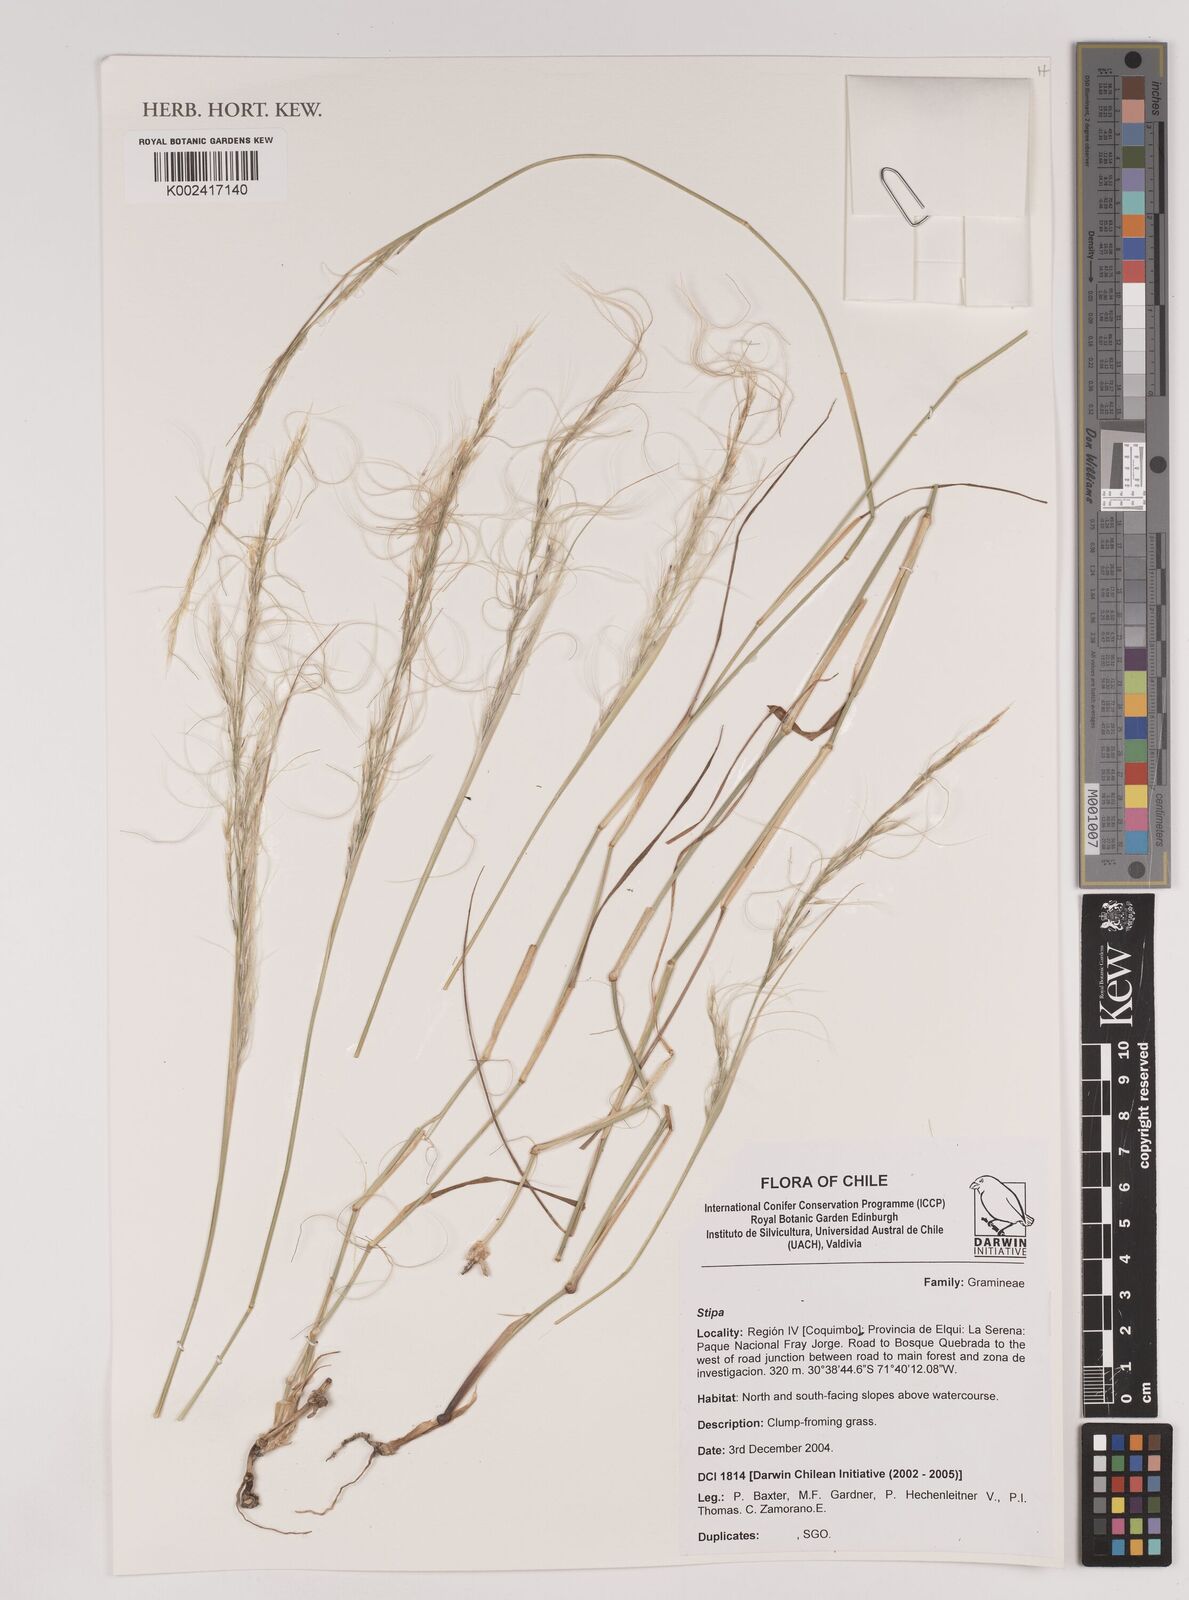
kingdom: Plantae
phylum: Tracheophyta
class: Liliopsida
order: Poales
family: Poaceae
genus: Stipa
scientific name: Stipa
